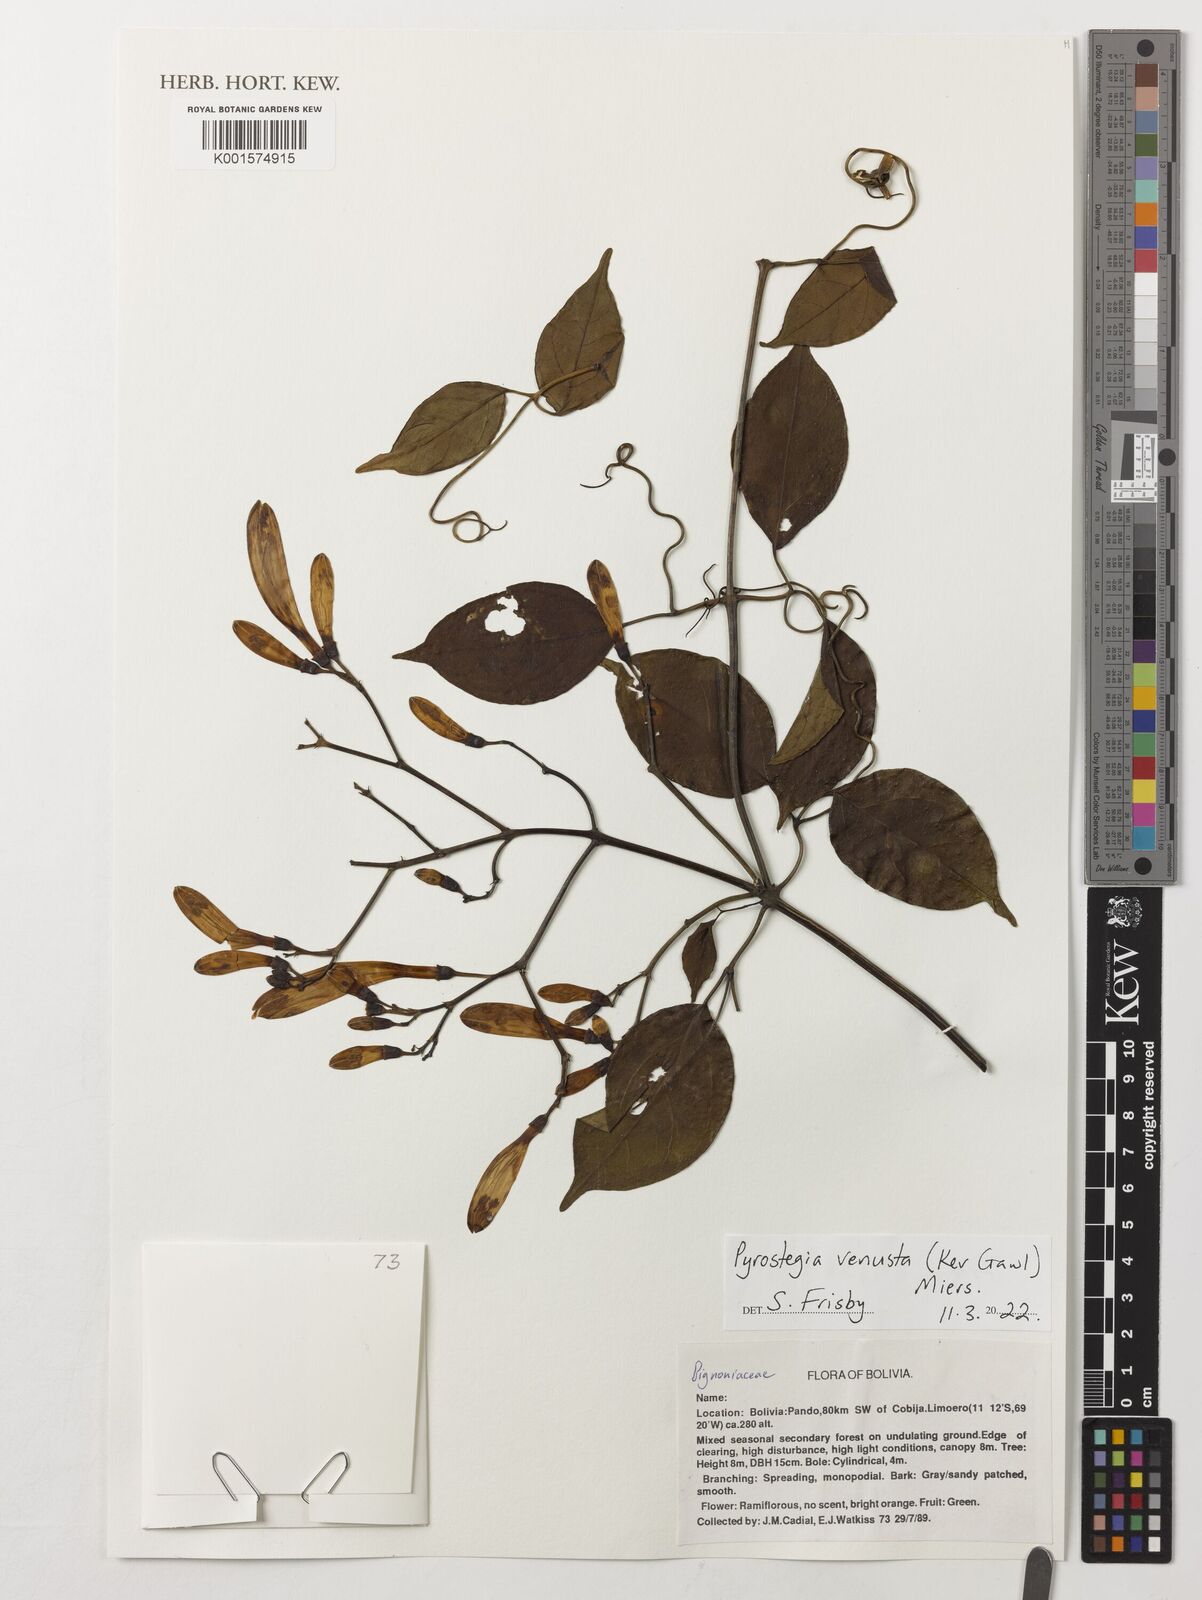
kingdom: Plantae
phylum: Tracheophyta
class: Magnoliopsida
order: Lamiales
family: Bignoniaceae
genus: Pyrostegia
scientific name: Pyrostegia venusta
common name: Flamevine
